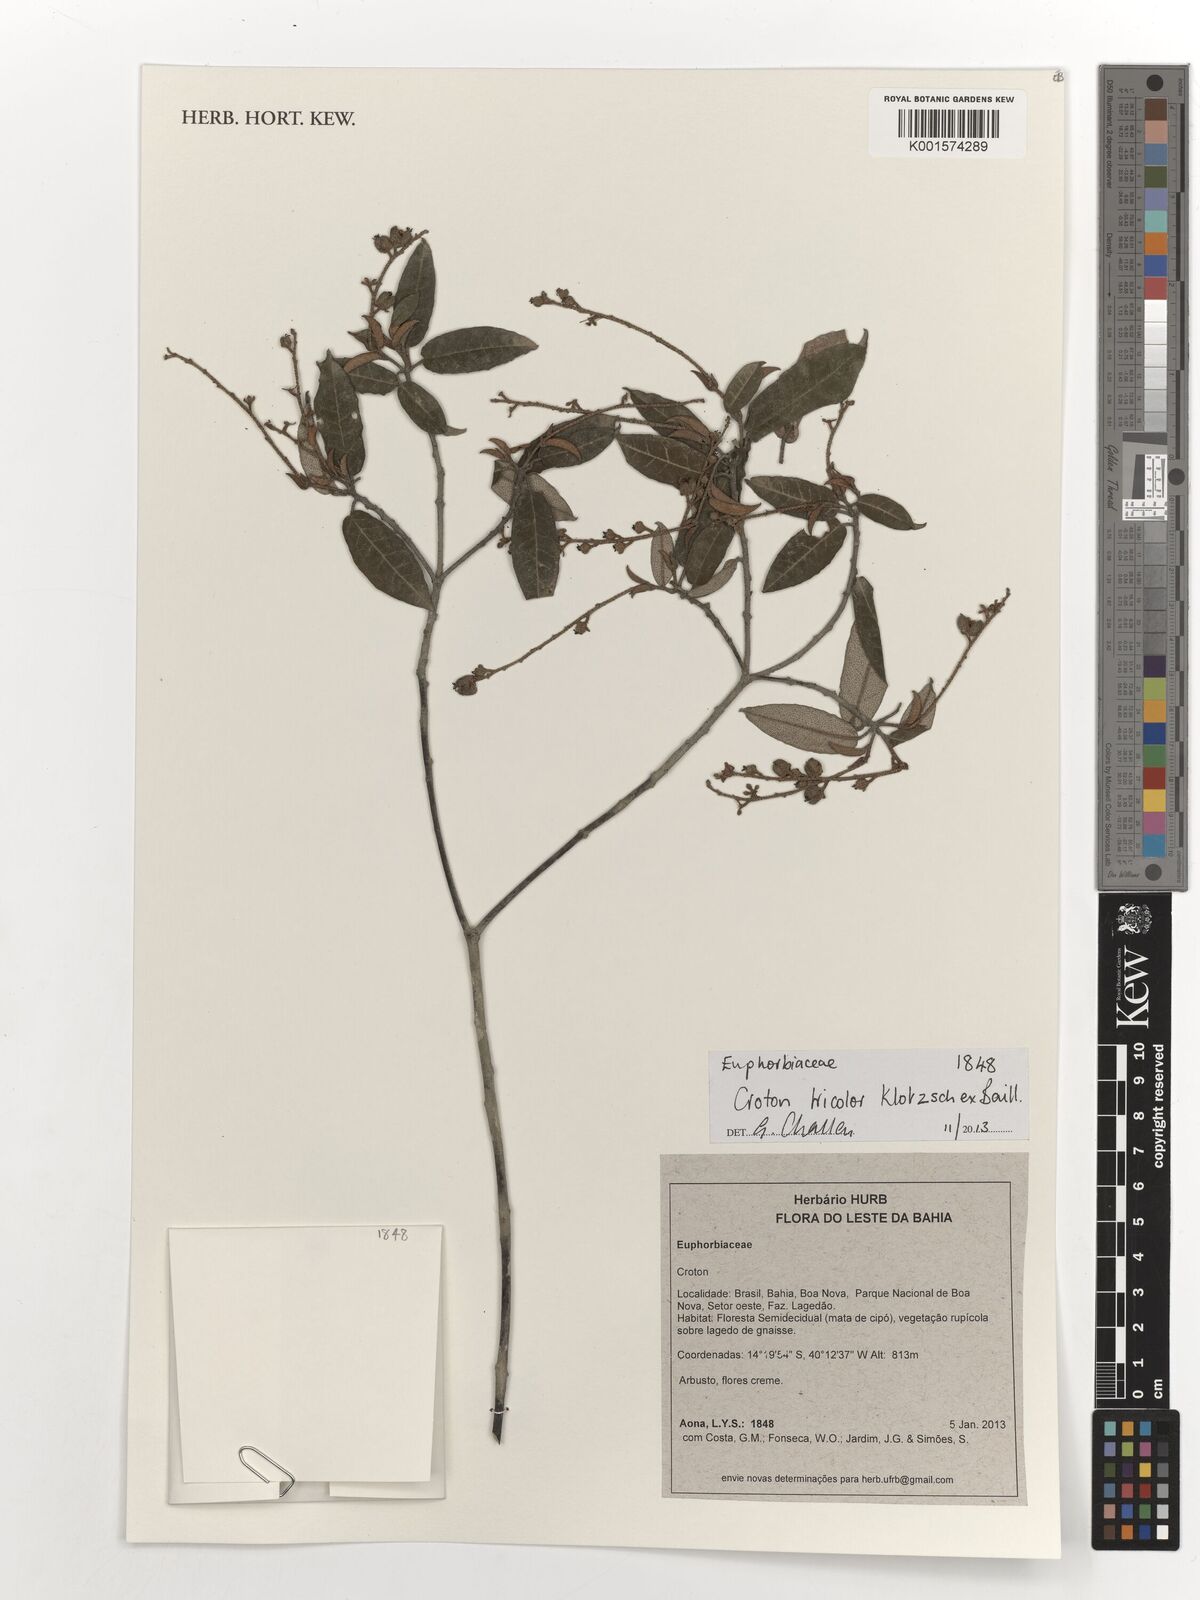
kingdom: Plantae
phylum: Tracheophyta
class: Magnoliopsida
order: Malpighiales
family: Euphorbiaceae
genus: Croton
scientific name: Croton tricolor
